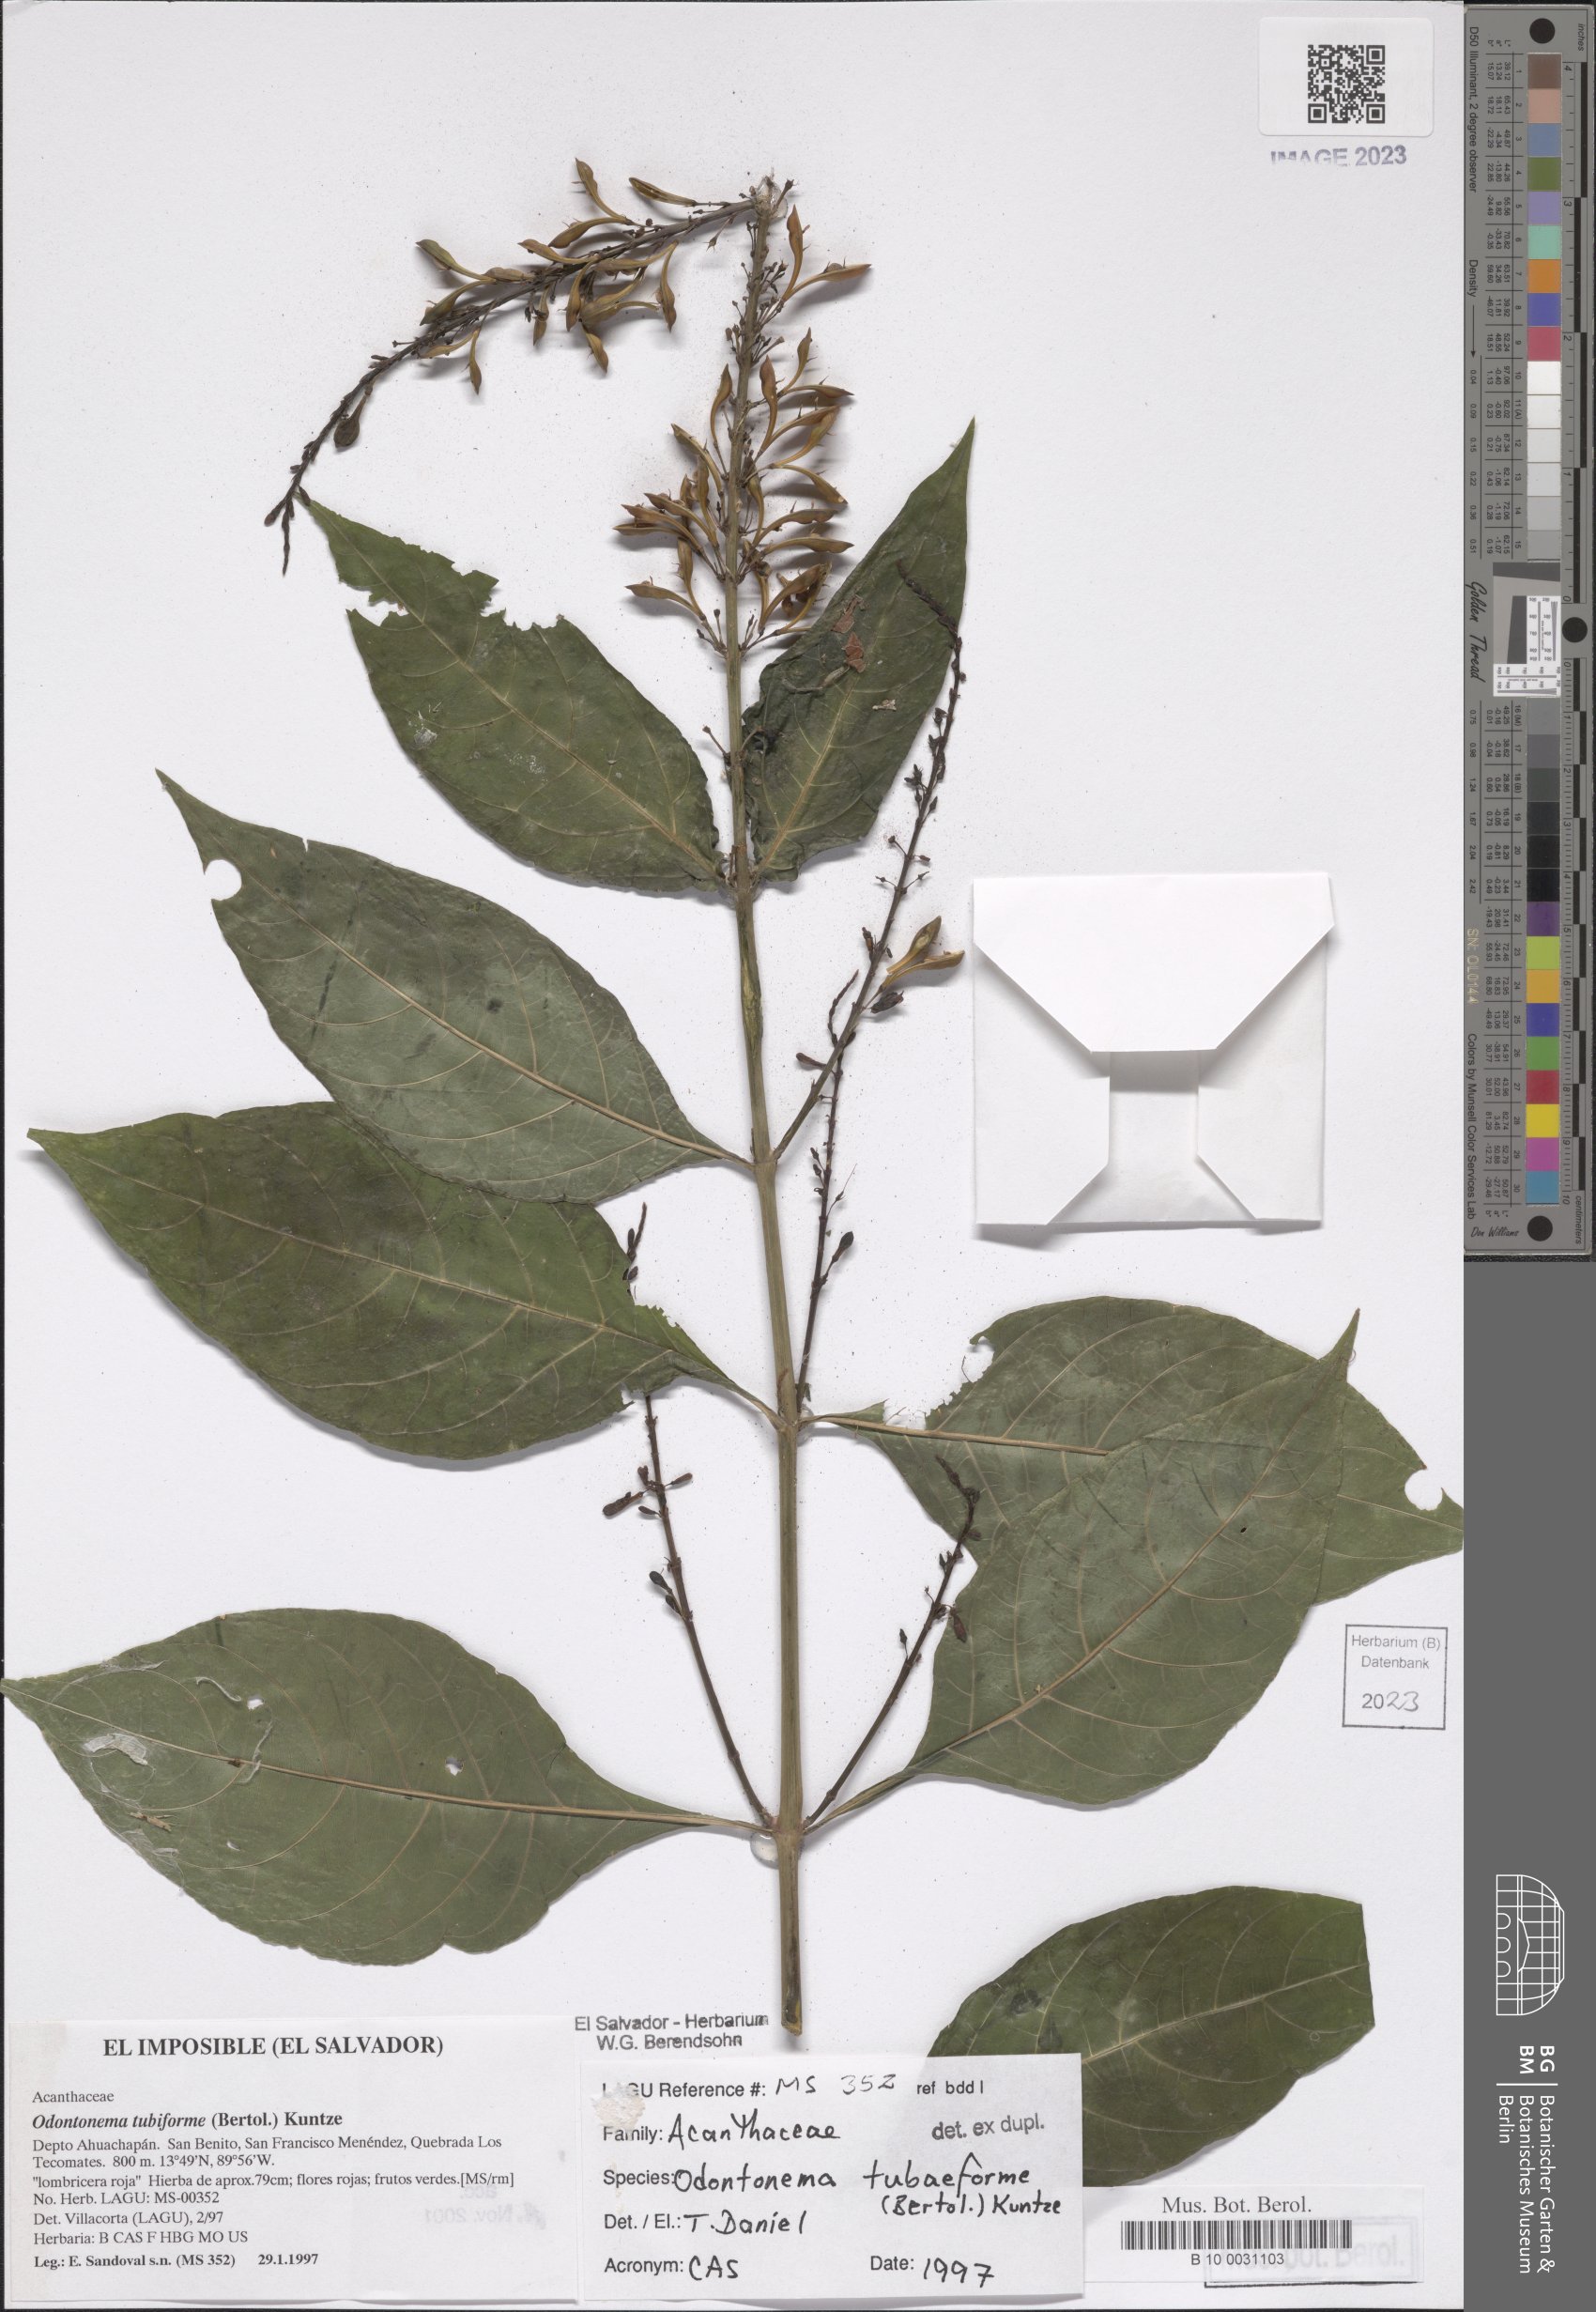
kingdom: Plantae
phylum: Tracheophyta
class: Magnoliopsida
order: Lamiales
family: Acanthaceae
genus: Odontonema
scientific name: Odontonema tubaeforme
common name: Firespike
